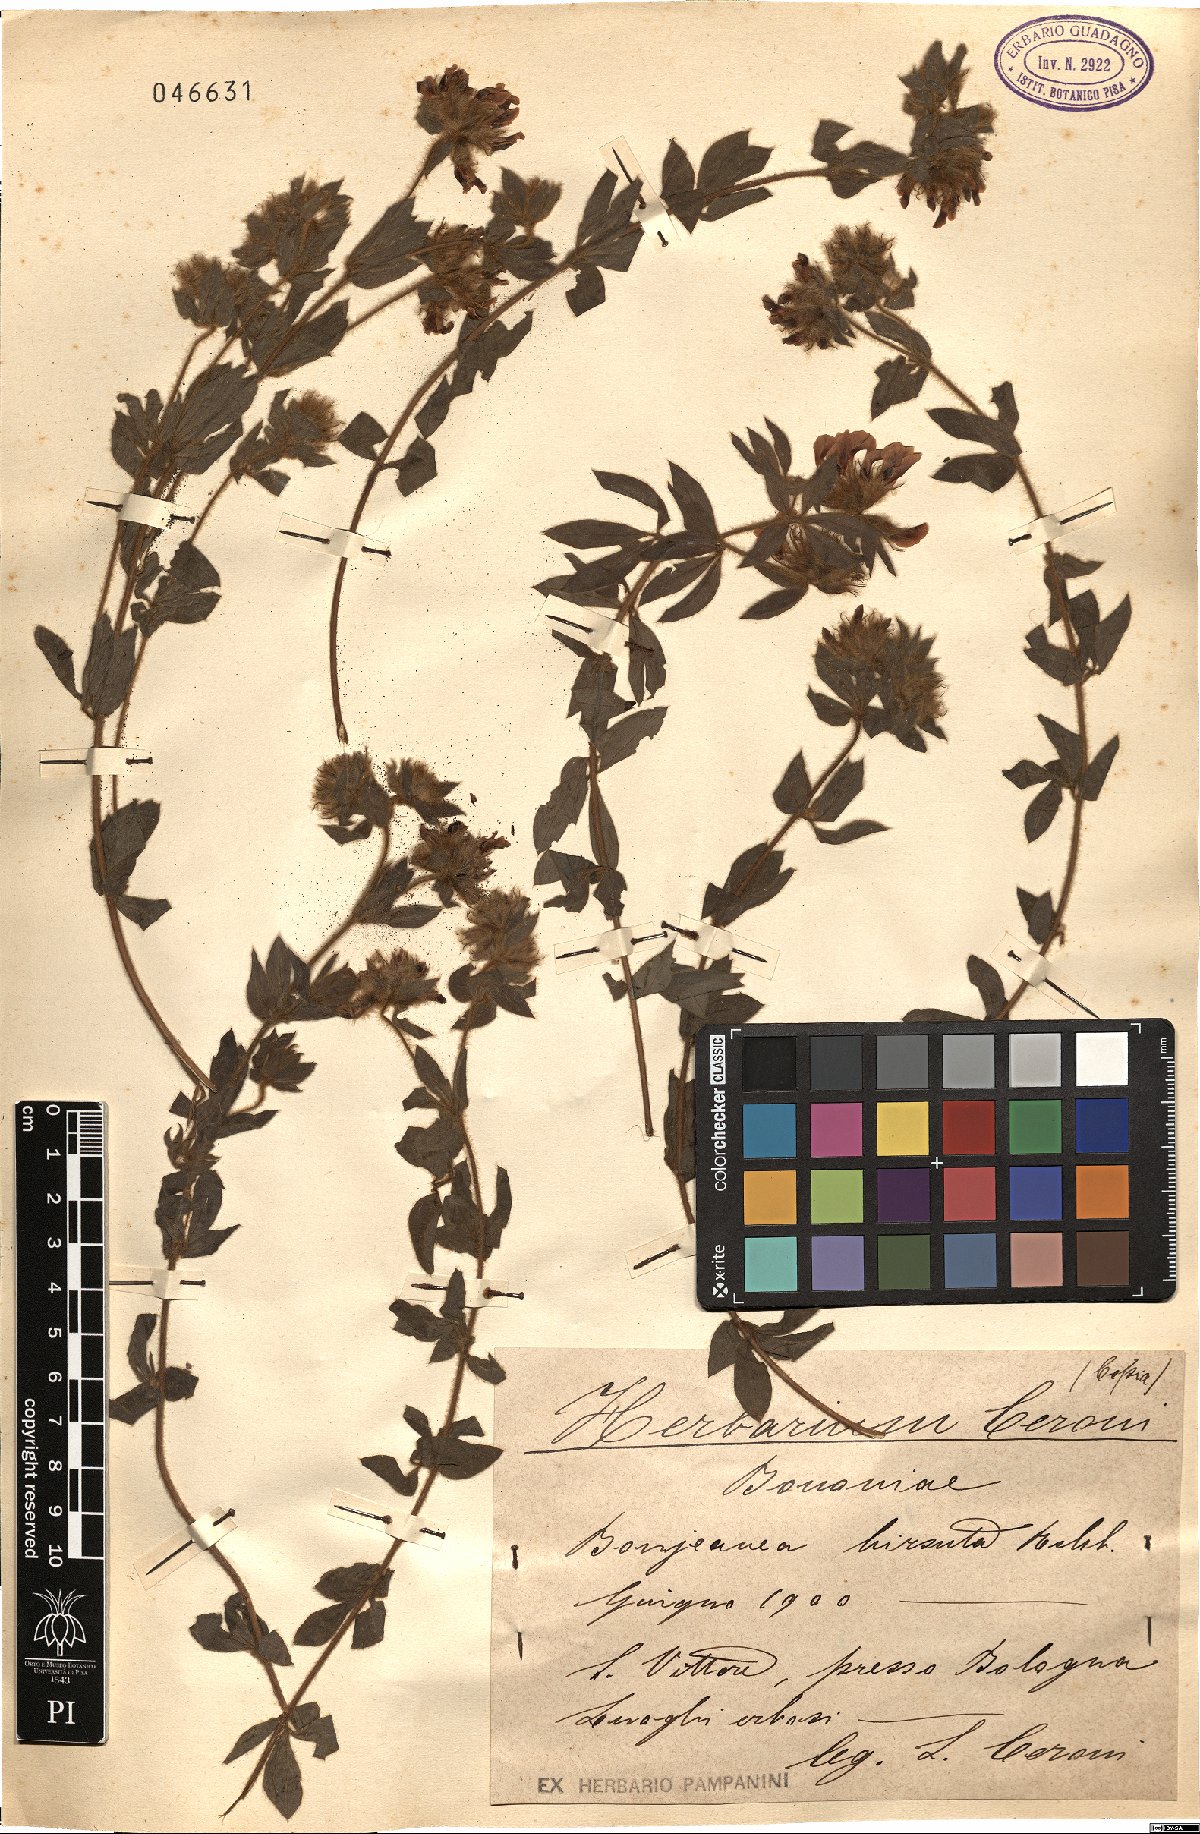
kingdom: Plantae
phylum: Tracheophyta
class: Magnoliopsida
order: Fabales
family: Fabaceae
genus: Lotus
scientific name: Lotus hirsutus
